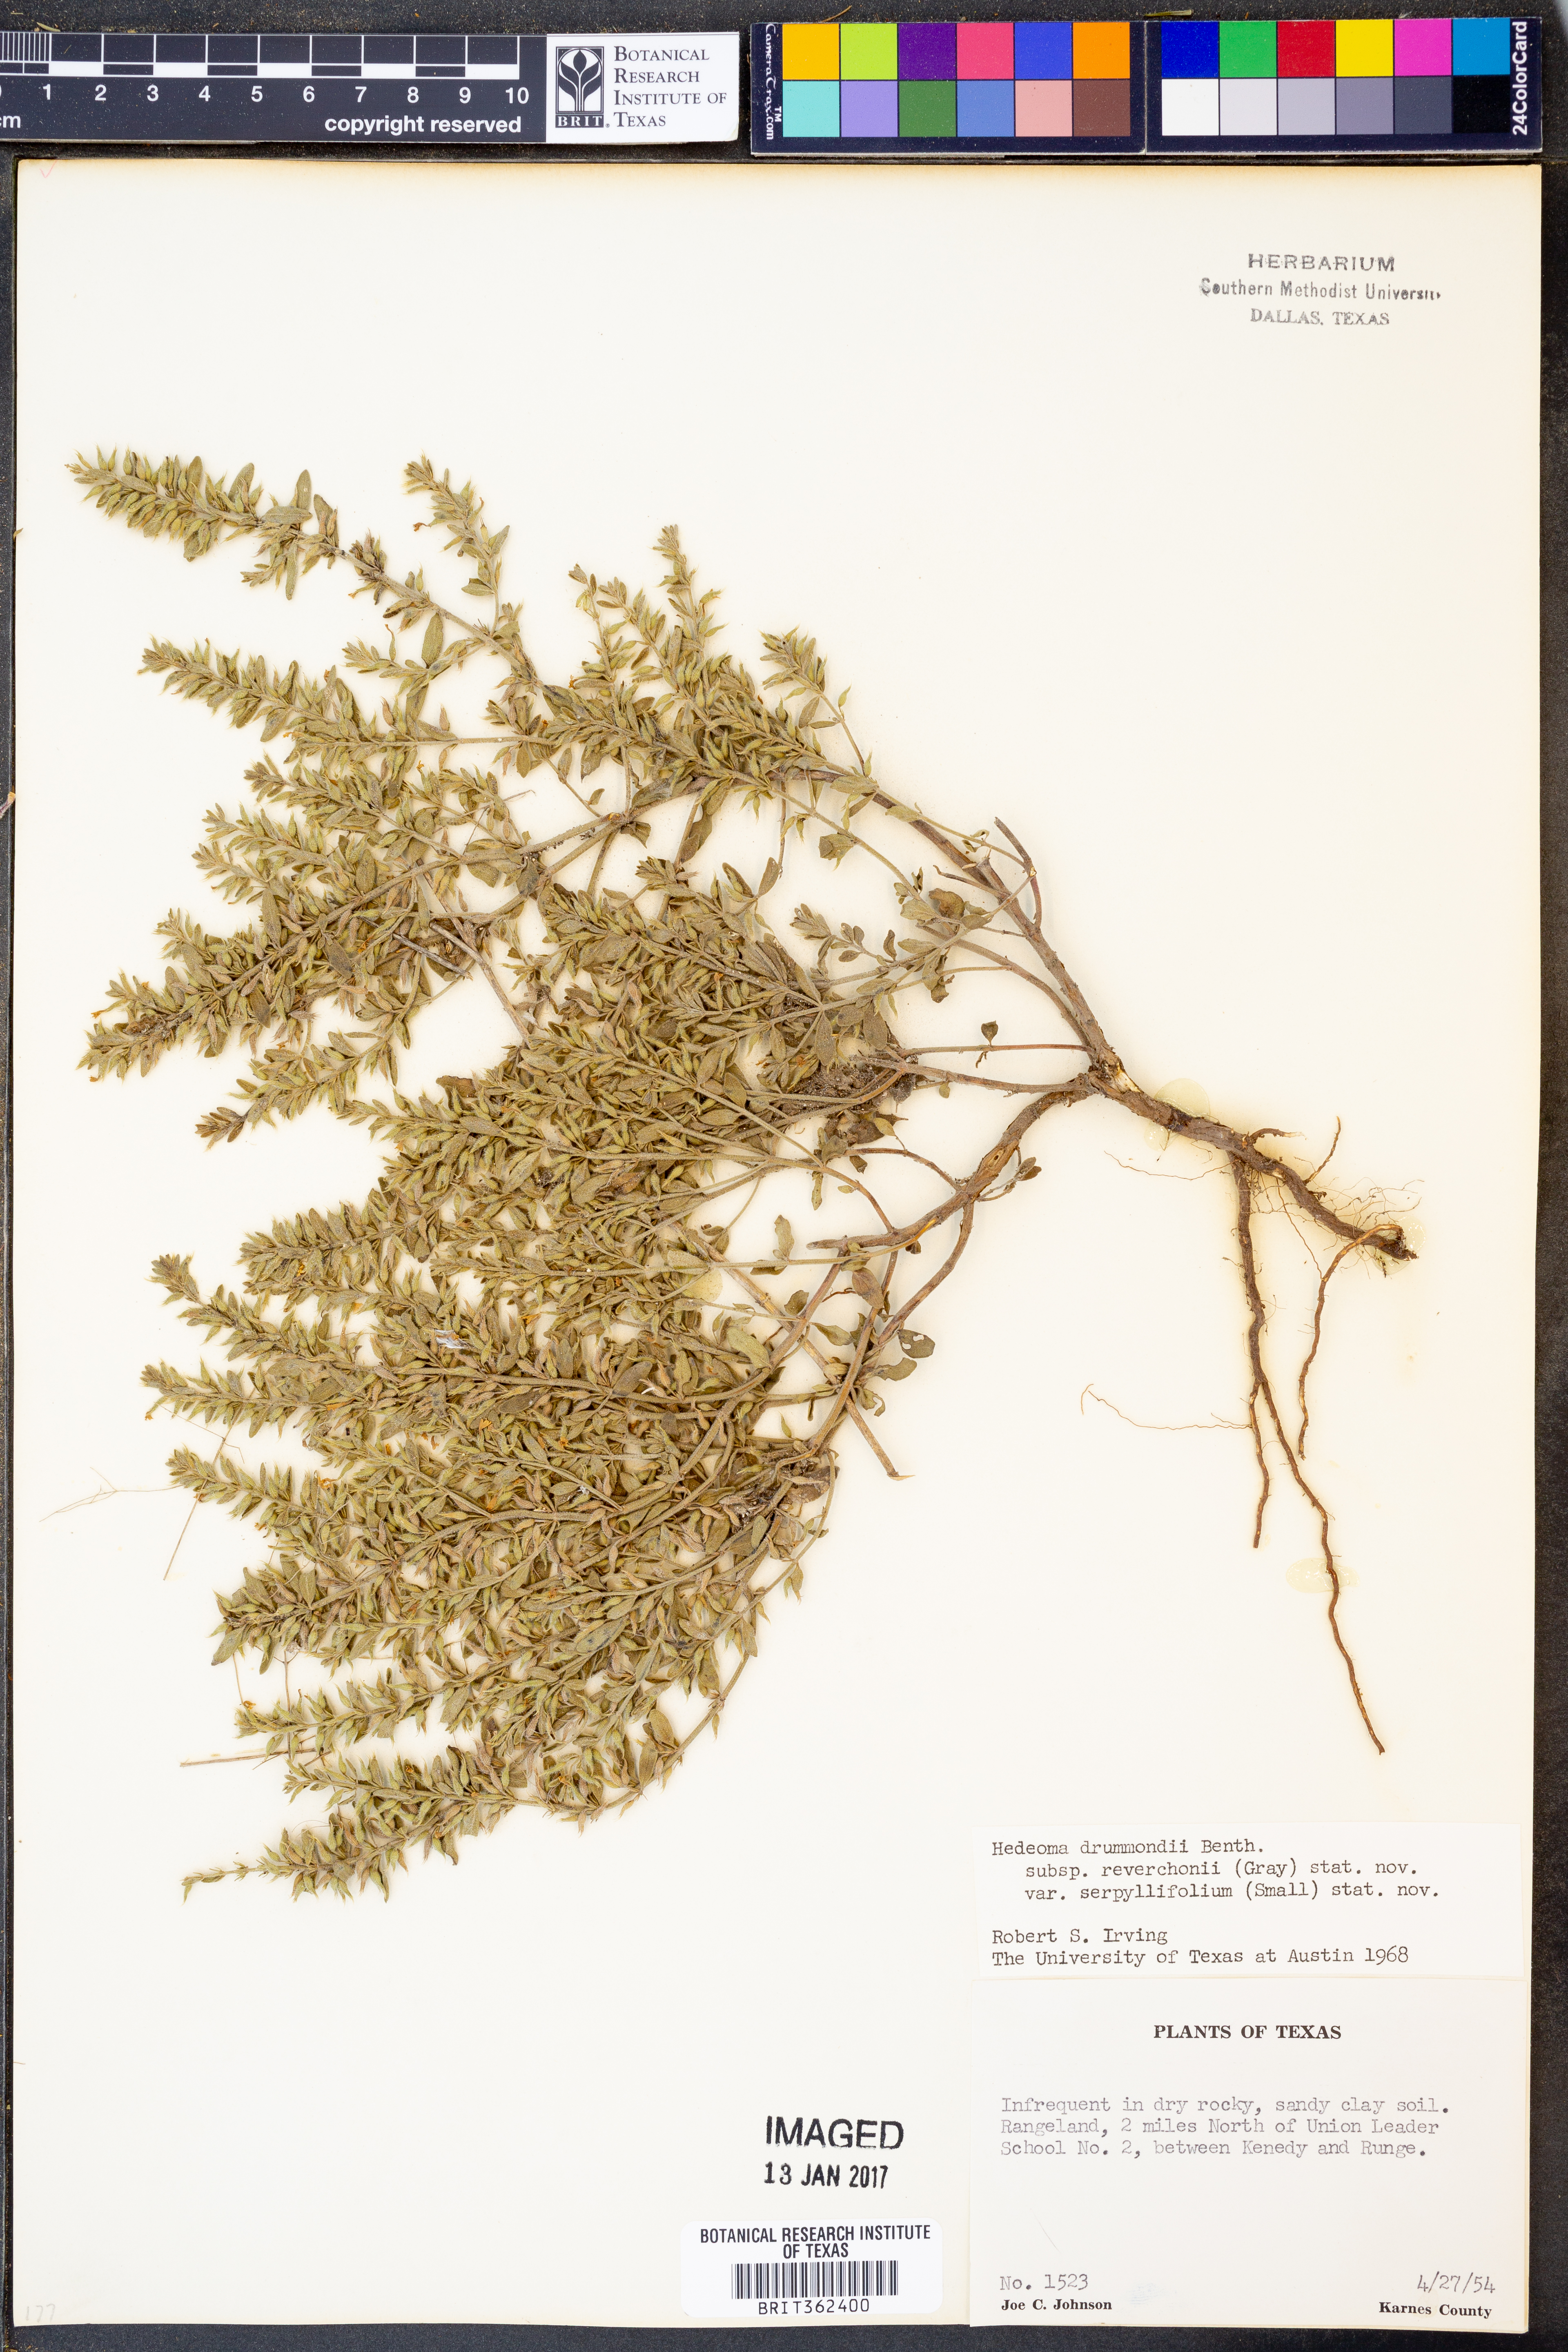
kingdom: Plantae
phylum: Tracheophyta
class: Magnoliopsida
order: Lamiales
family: Lamiaceae
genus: Hedeoma
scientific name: Hedeoma reverchonii
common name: Reverchon's false penny-royal
